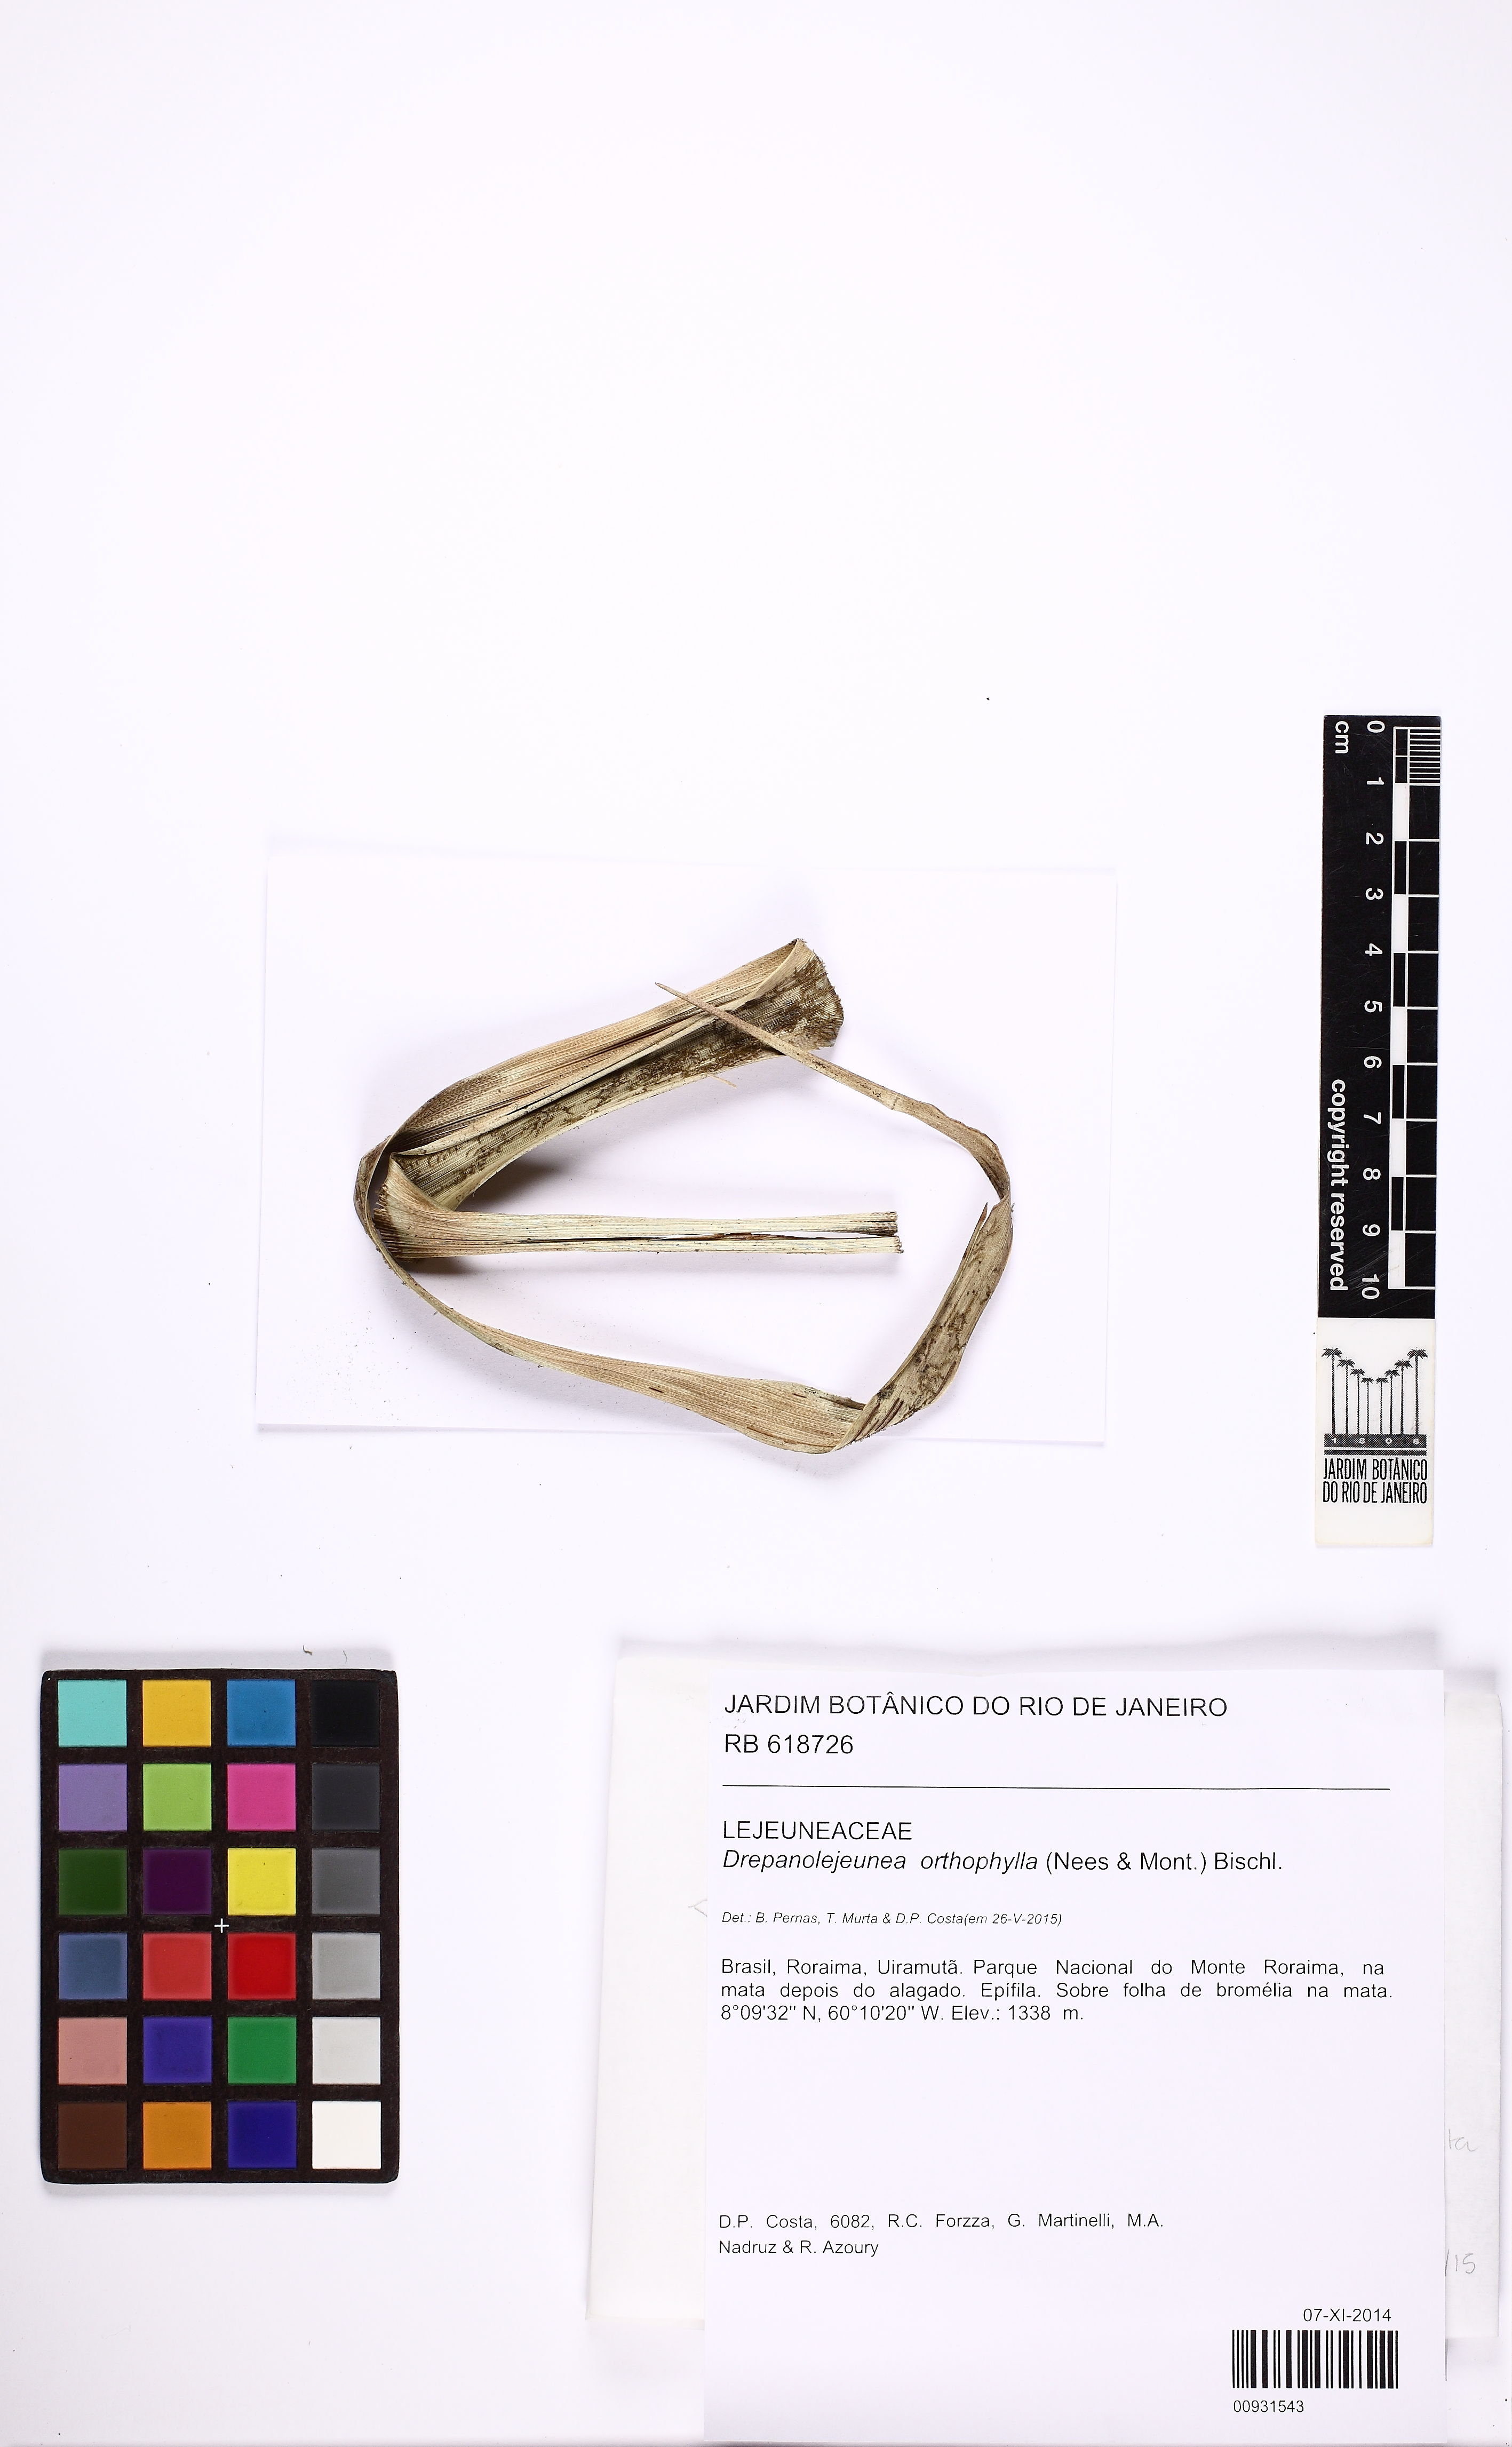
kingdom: Plantae
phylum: Marchantiophyta
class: Jungermanniopsida
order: Porellales
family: Lejeuneaceae
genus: Drepanolejeunea
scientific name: Drepanolejeunea orthophylla
